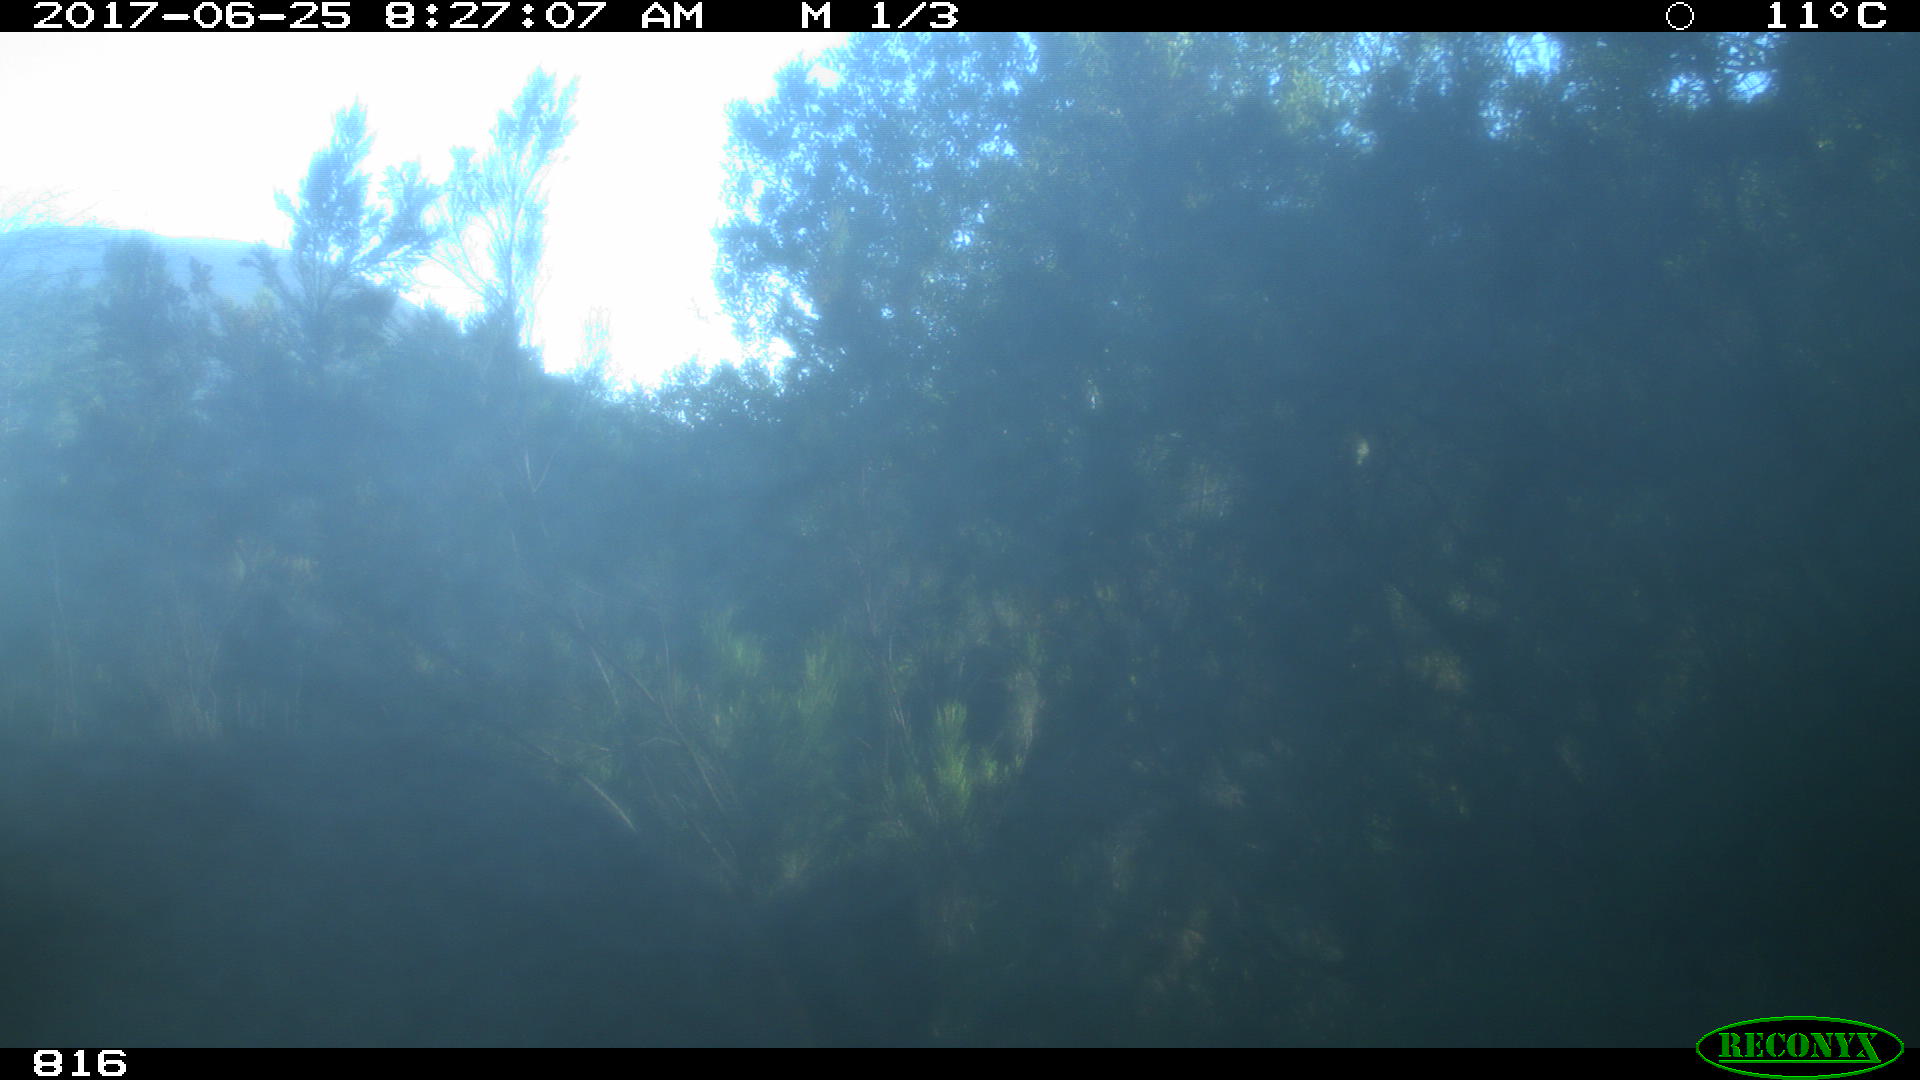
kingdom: Animalia
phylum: Chordata
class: Mammalia
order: Perissodactyla
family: Equidae
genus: Equus
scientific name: Equus caballus
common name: Horse
